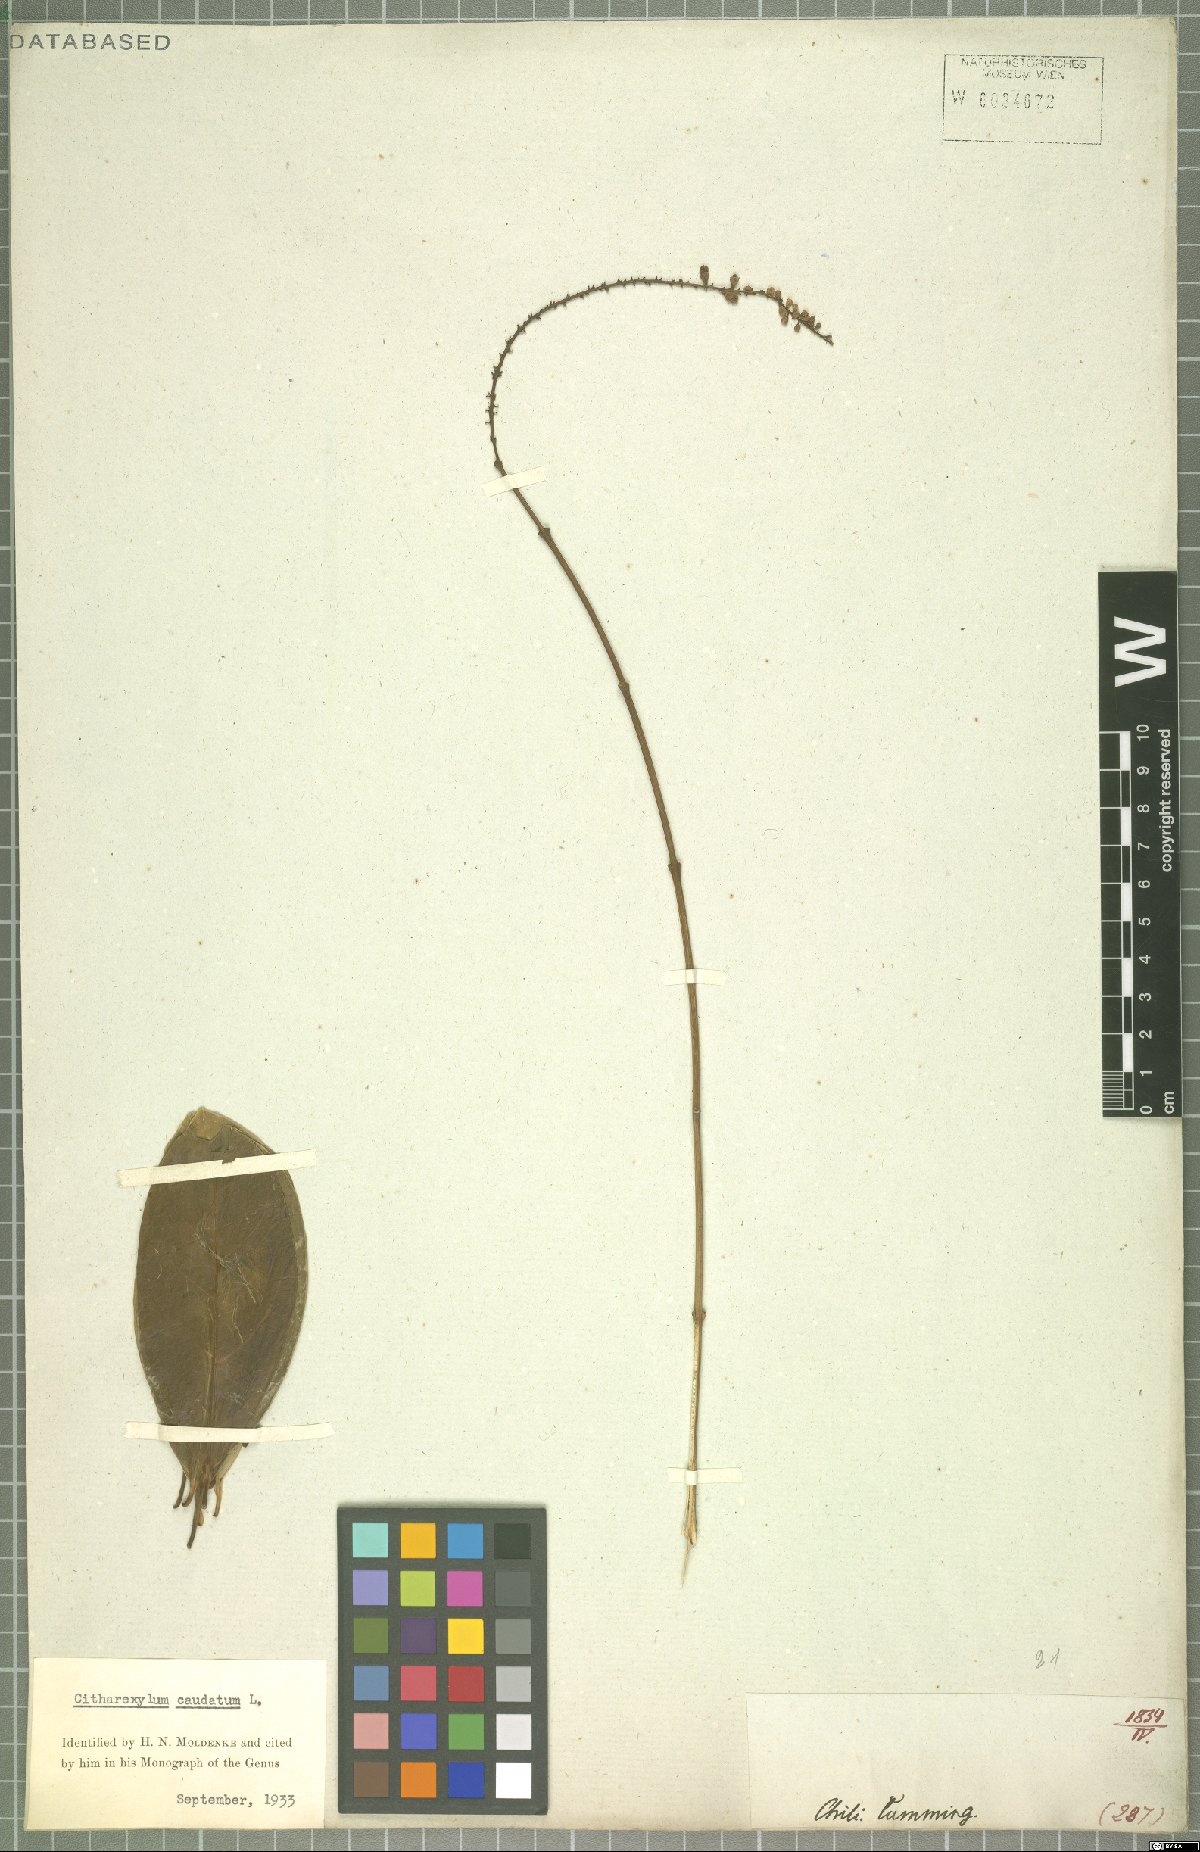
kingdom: Plantae
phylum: Tracheophyta
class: Magnoliopsida
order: Lamiales
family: Verbenaceae
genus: Citharexylum
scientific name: Citharexylum caudatum
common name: Fiddlewood
